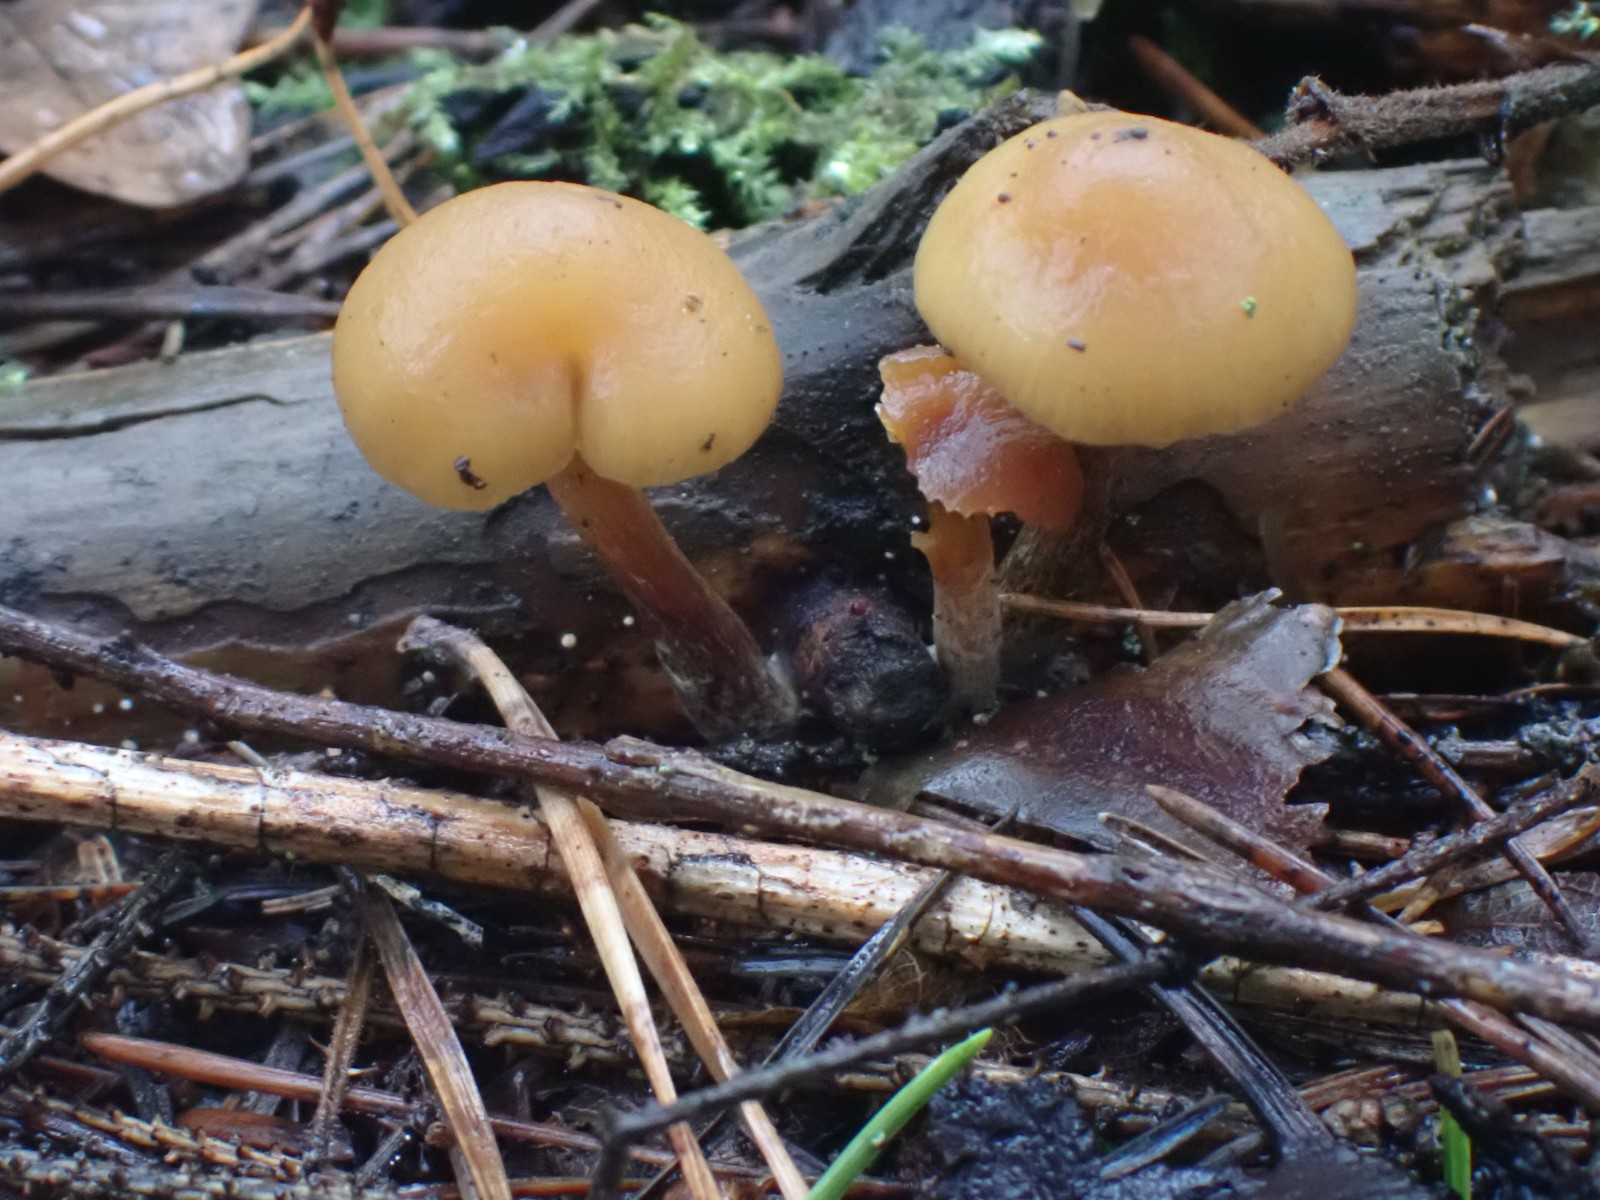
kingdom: Fungi
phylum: Basidiomycota
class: Agaricomycetes
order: Agaricales
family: Hymenogastraceae
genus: Galerina
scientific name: Galerina marginata
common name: randbæltet hjelmhat
